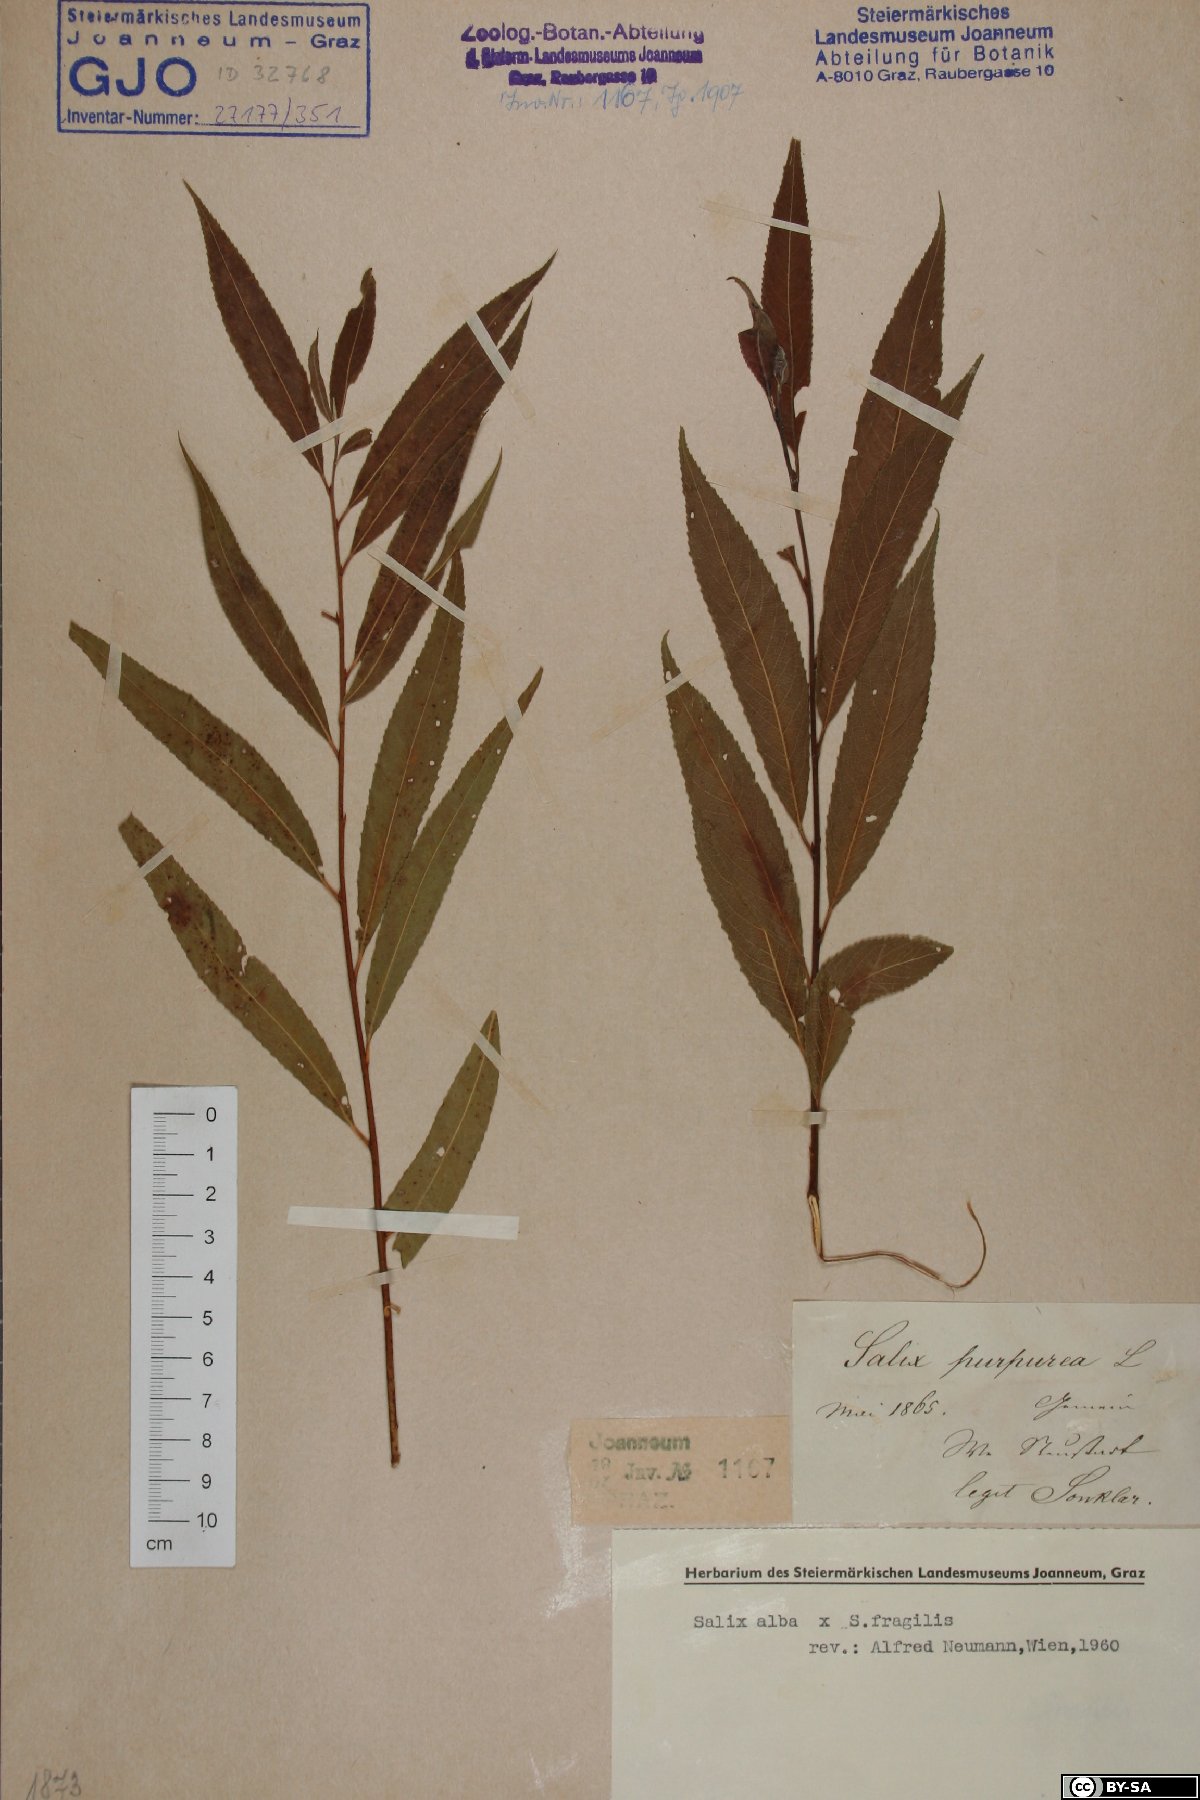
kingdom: Plantae
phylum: Tracheophyta
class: Magnoliopsida
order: Malpighiales
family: Salicaceae
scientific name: Salicaceae
